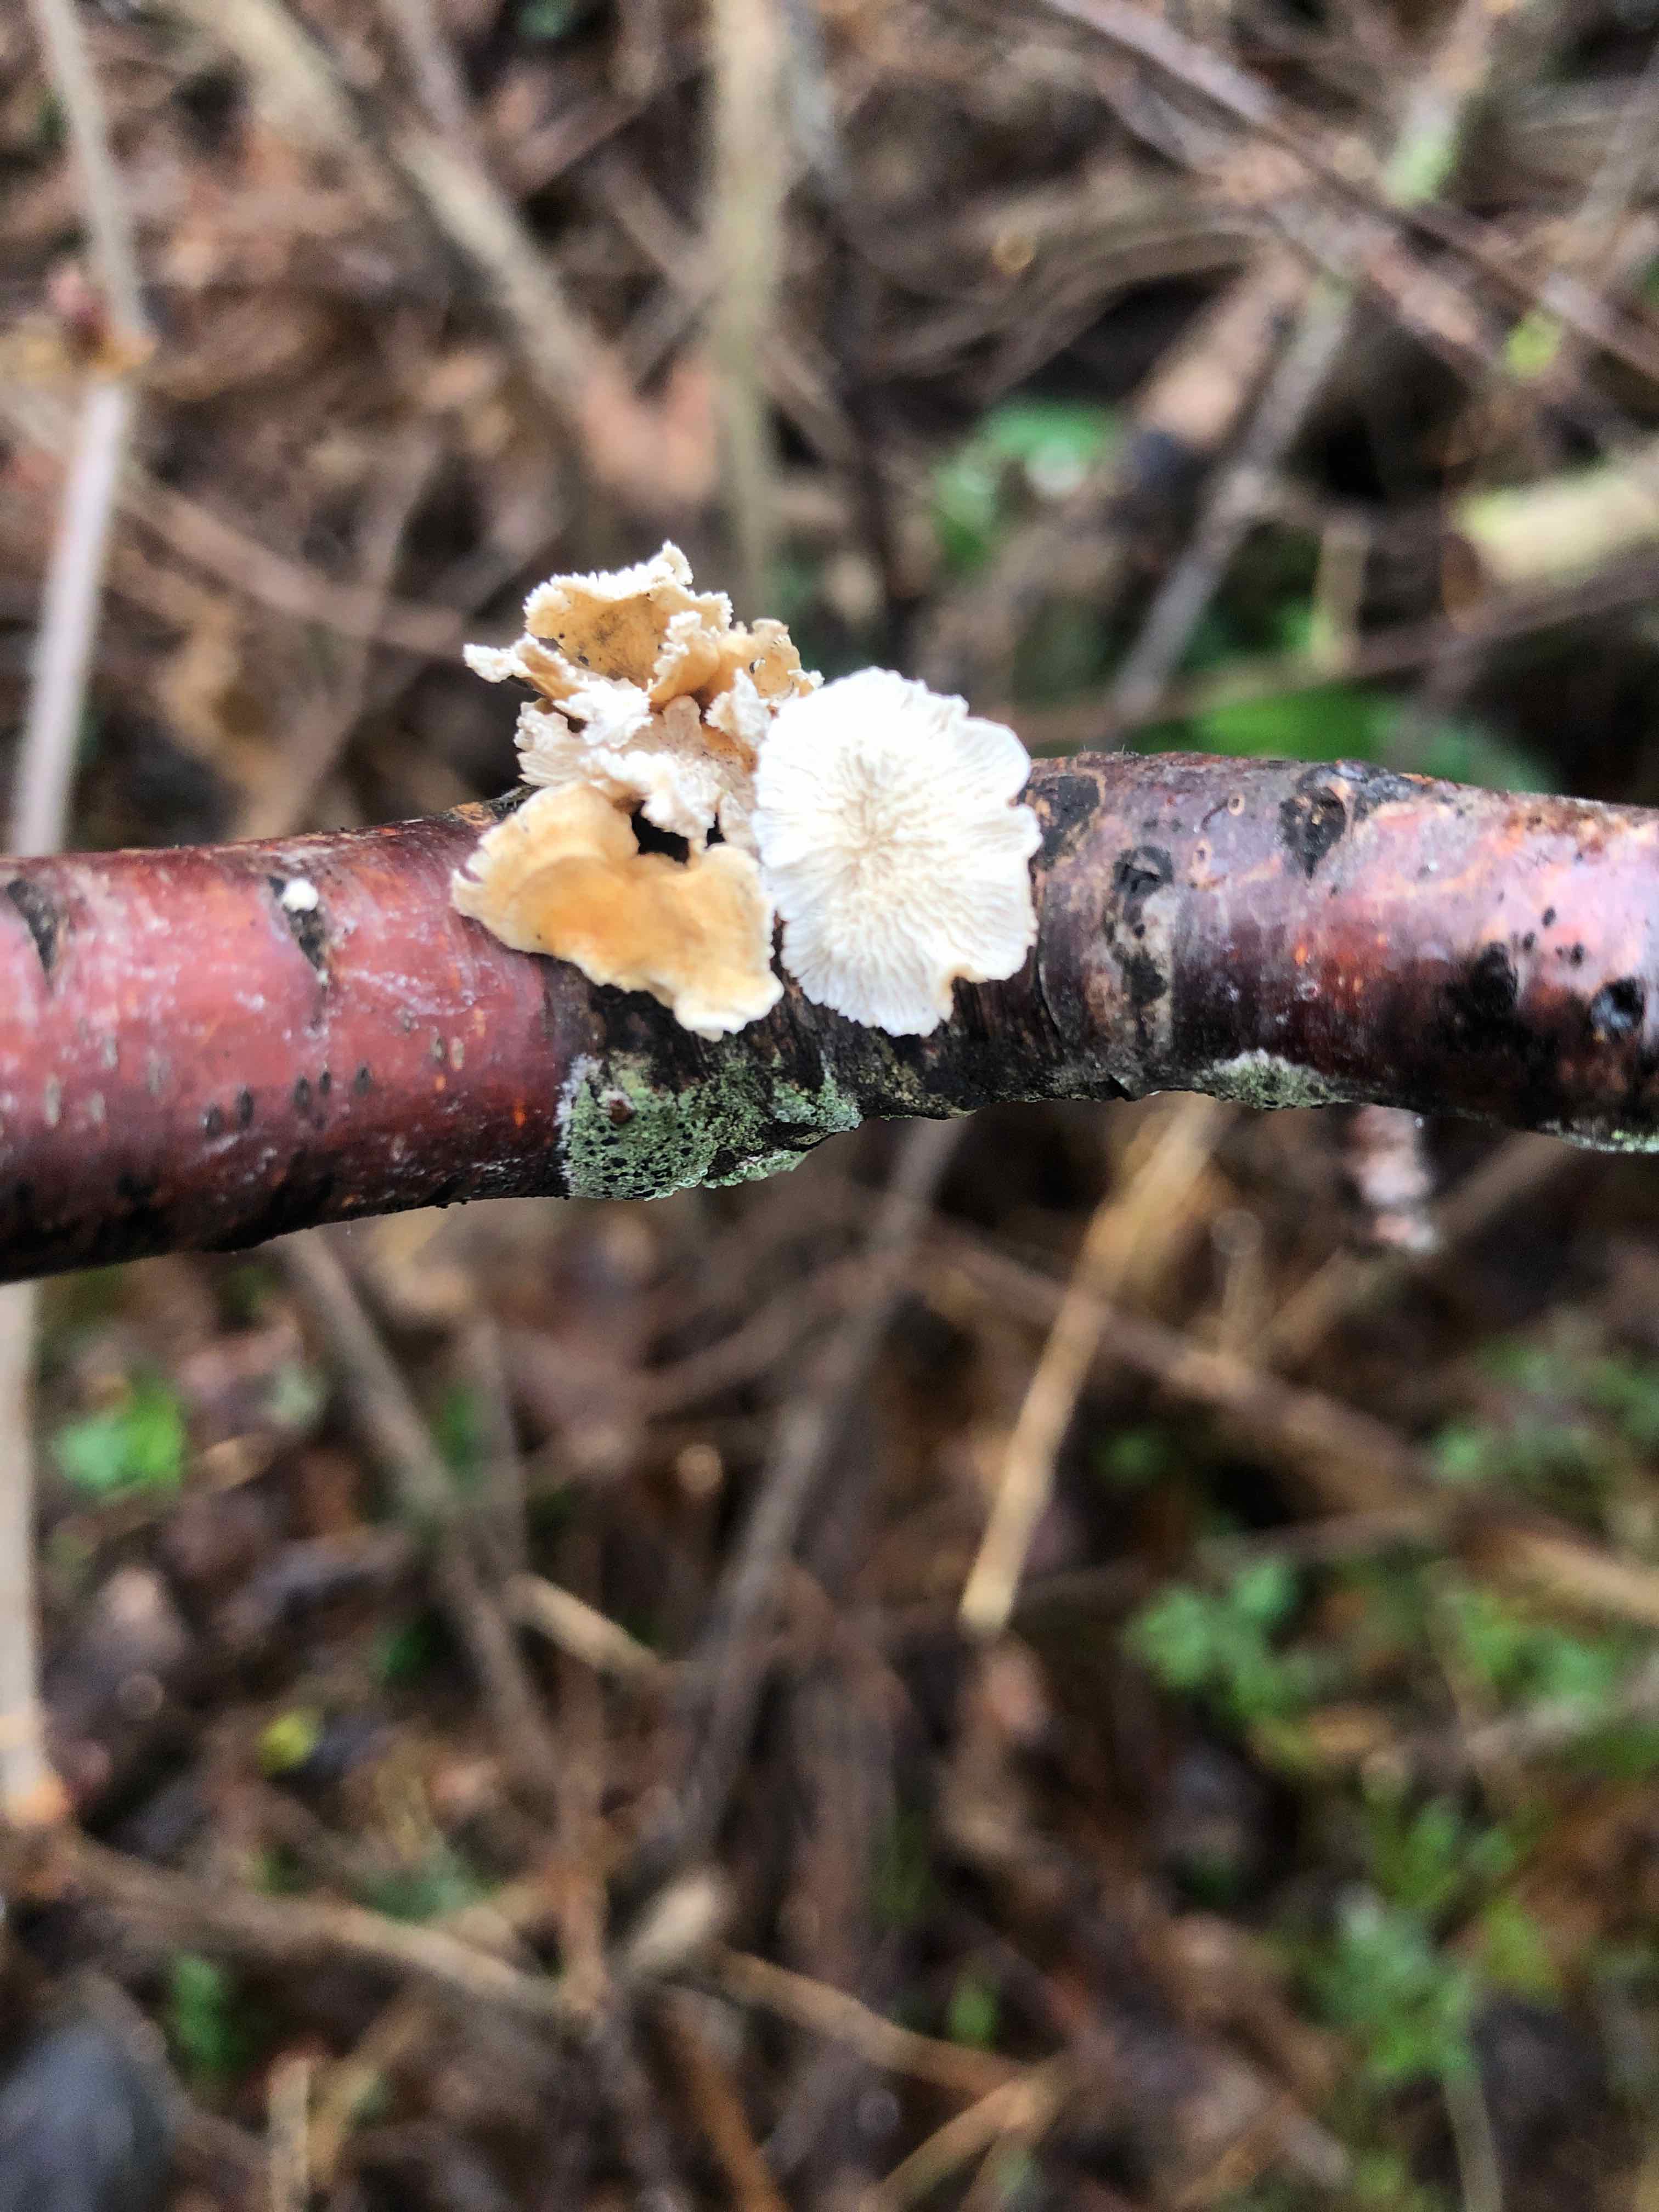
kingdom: Fungi
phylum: Basidiomycota
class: Agaricomycetes
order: Amylocorticiales
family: Amylocorticiaceae
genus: Plicaturopsis
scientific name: Plicaturopsis crispa
